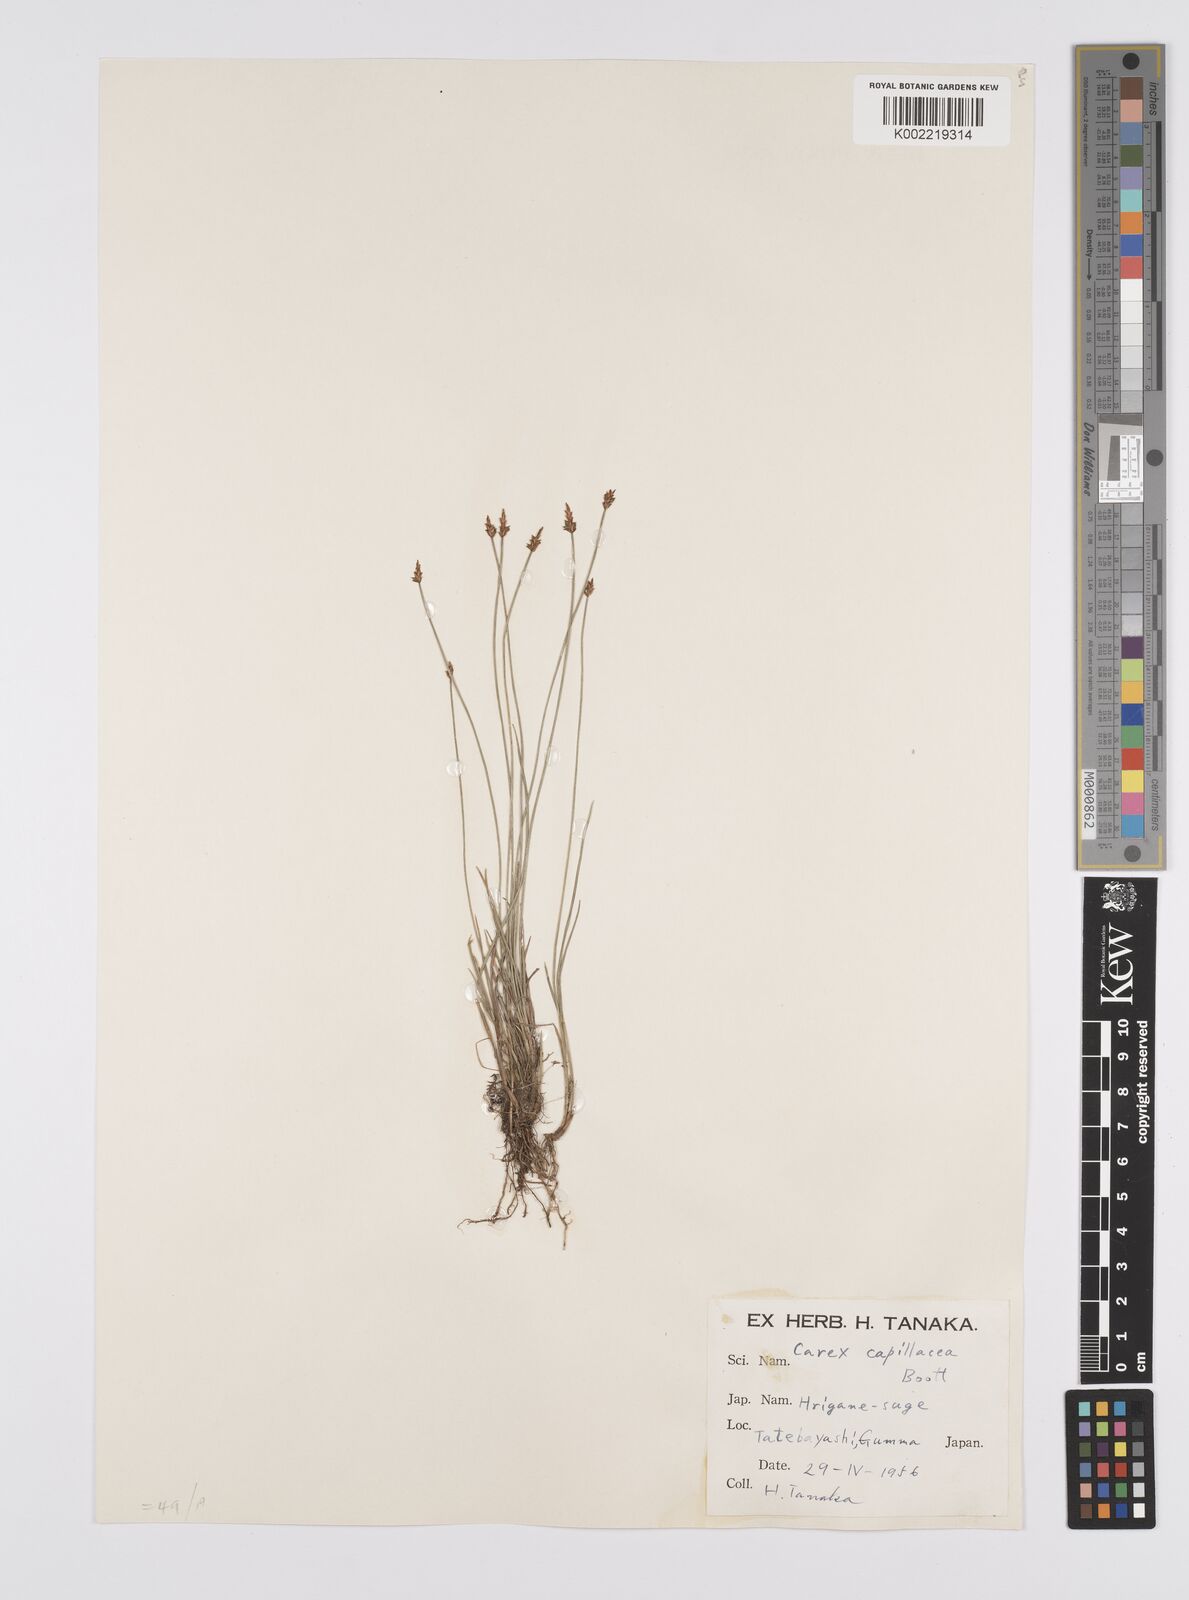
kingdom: Plantae
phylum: Tracheophyta
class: Liliopsida
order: Poales
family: Cyperaceae
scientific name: Cyperaceae
